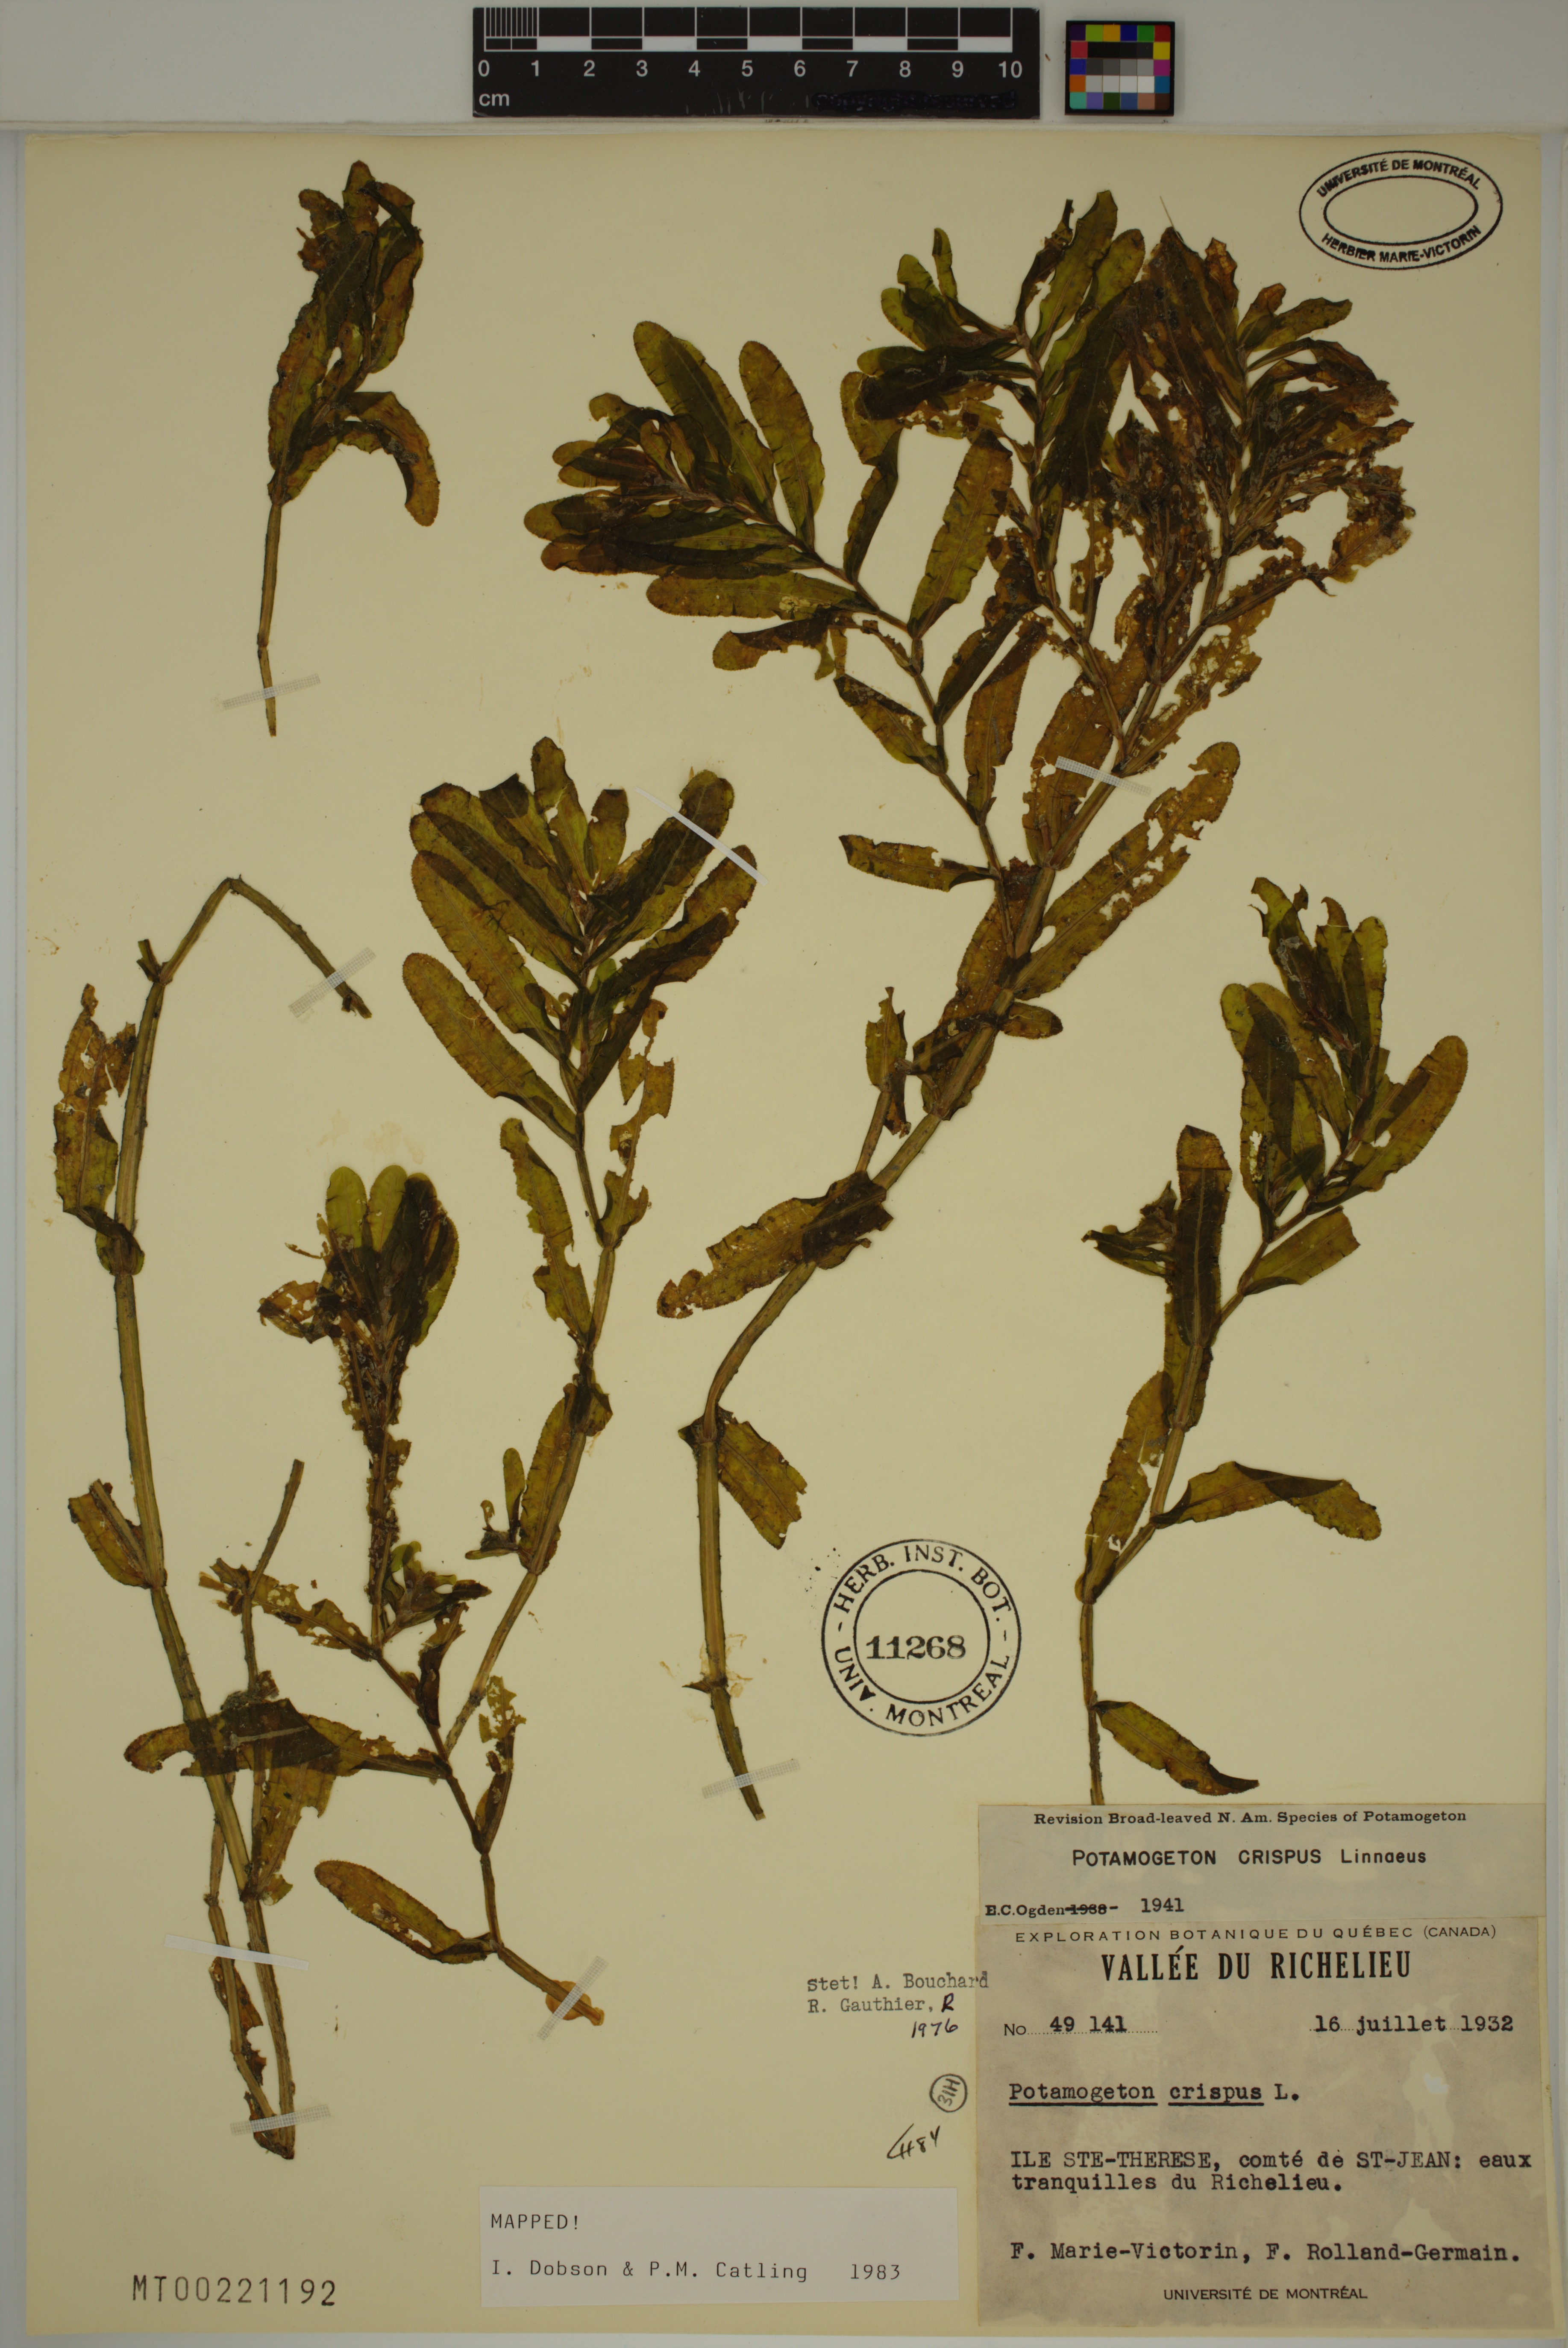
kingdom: Plantae
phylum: Tracheophyta
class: Liliopsida
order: Alismatales
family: Potamogetonaceae
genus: Potamogeton
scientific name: Potamogeton crispus
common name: Curled pondweed
